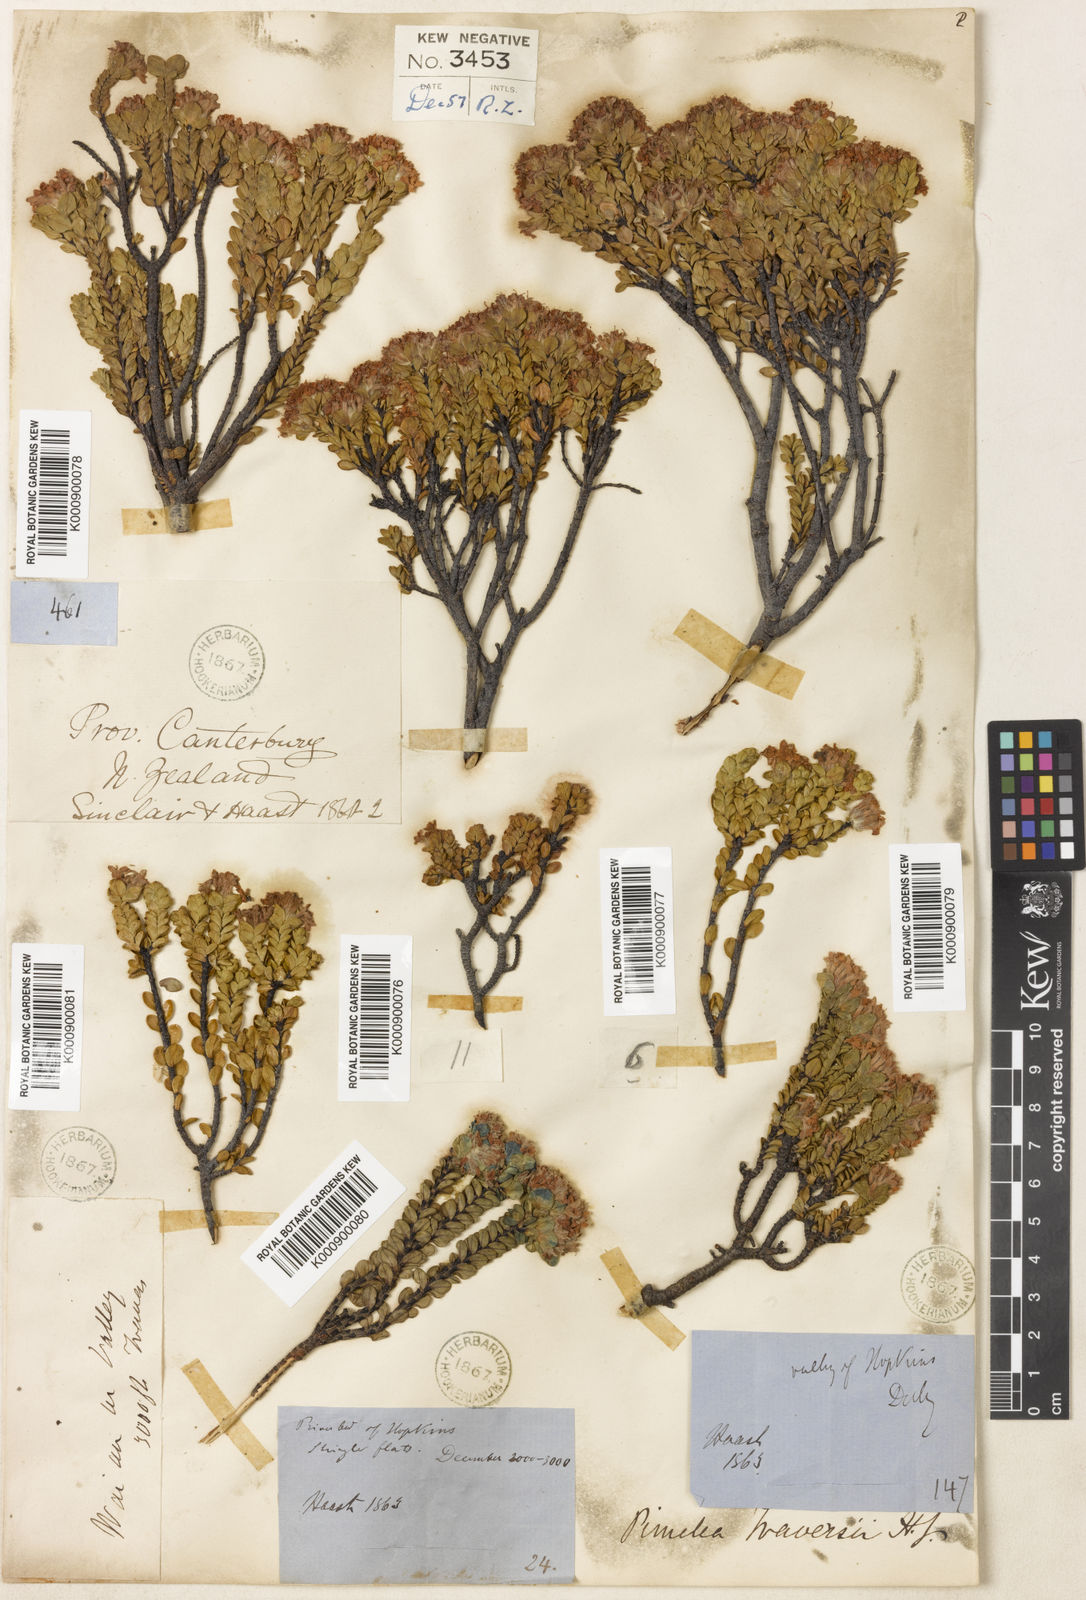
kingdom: Plantae
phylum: Tracheophyta
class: Magnoliopsida
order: Malvales
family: Thymelaeaceae
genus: Pimelea
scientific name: Pimelea traversii
